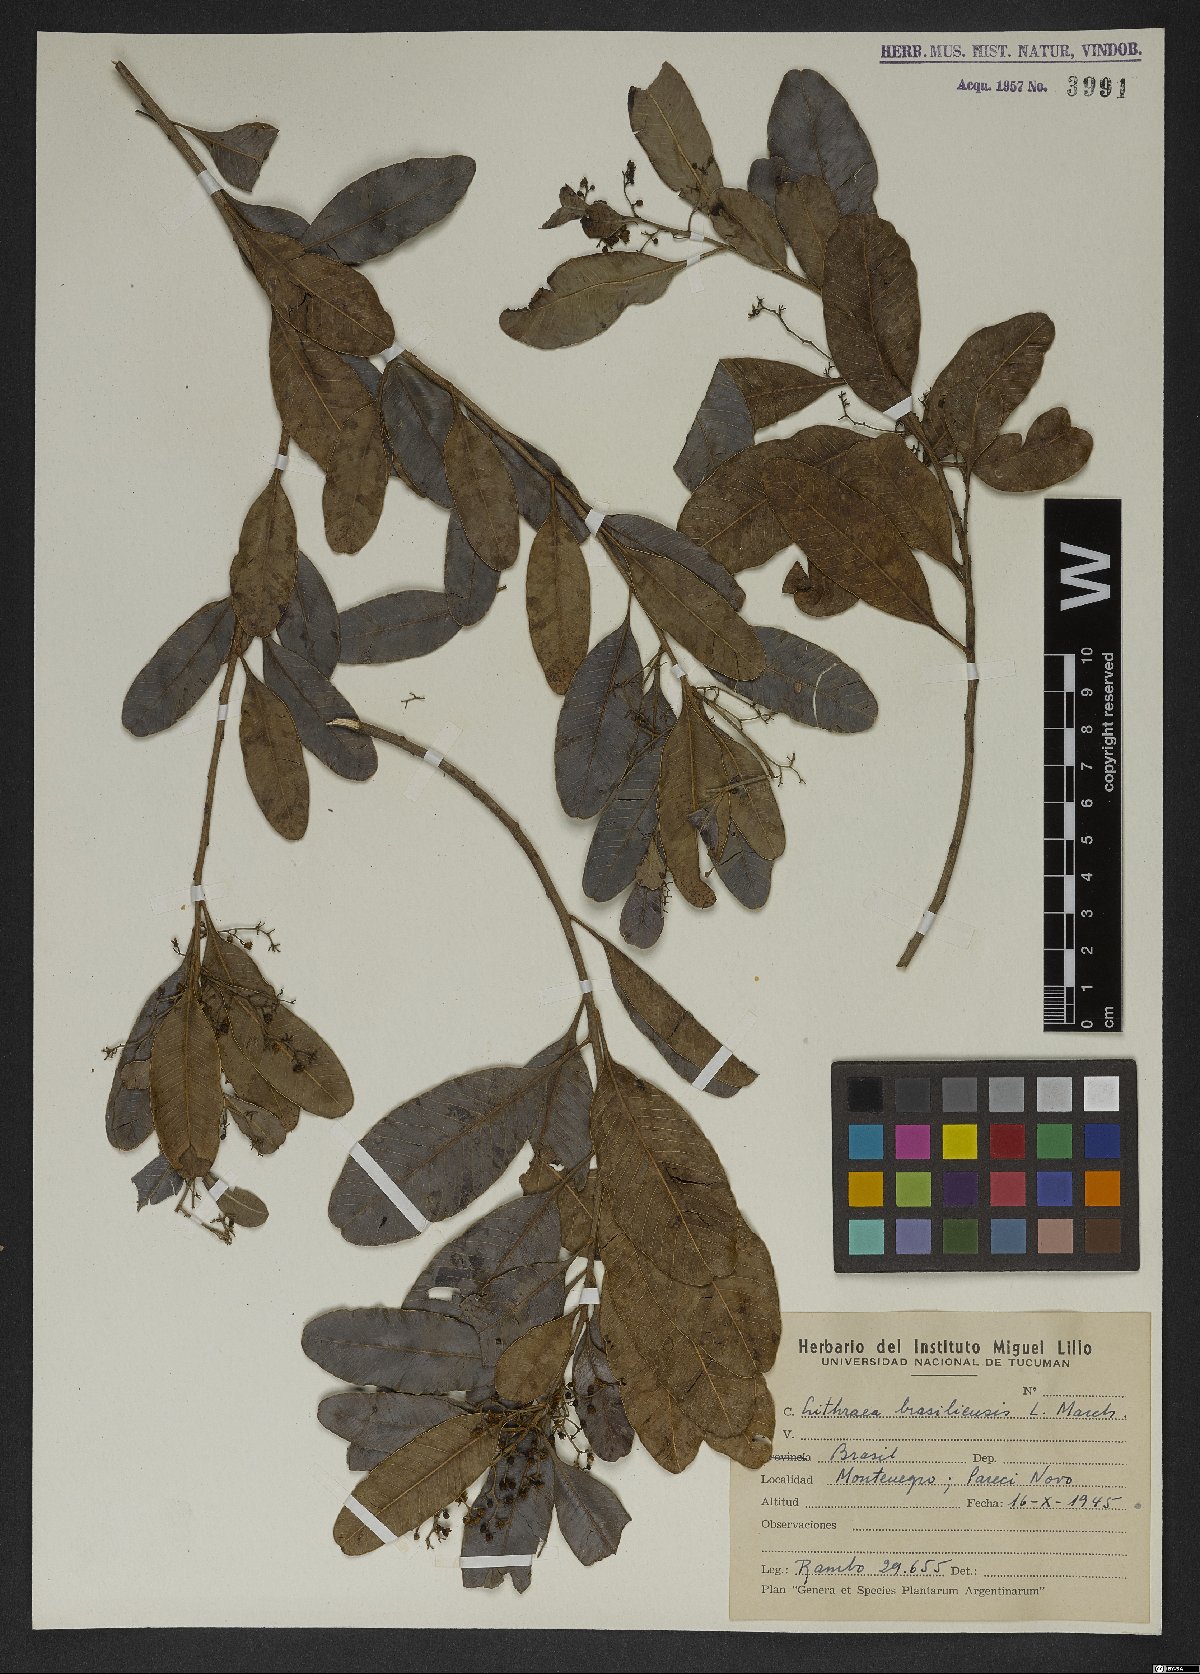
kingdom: Plantae
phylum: Tracheophyta
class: Magnoliopsida
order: Sapindales
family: Anacardiaceae
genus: Lithraea
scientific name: Lithraea brasiliensis
